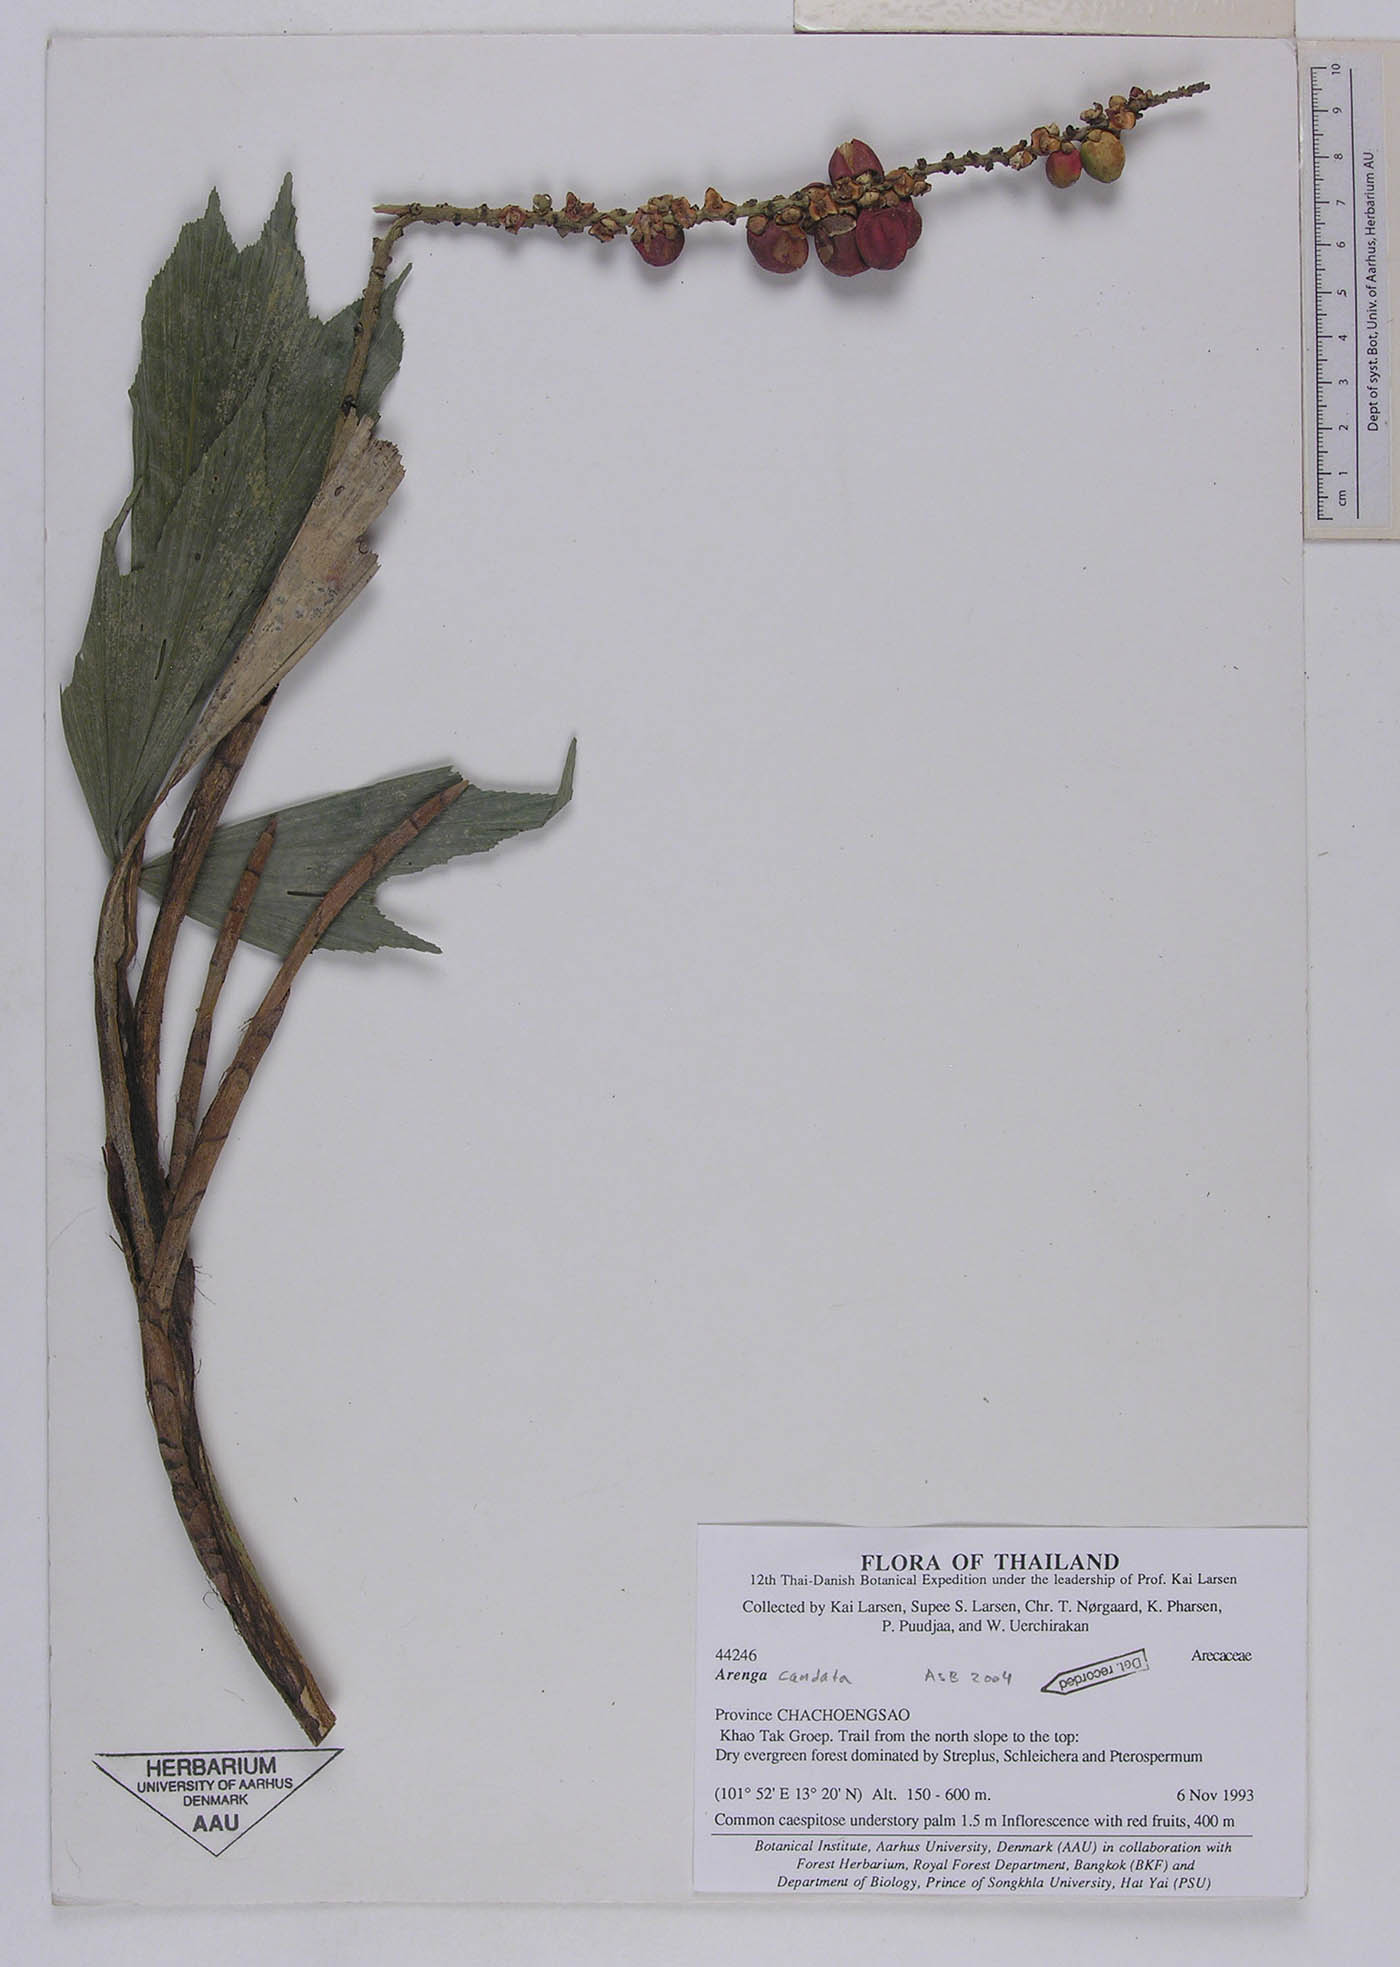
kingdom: Plantae
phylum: Tracheophyta
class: Liliopsida
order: Arecales
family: Arecaceae
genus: Arenga
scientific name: Arenga caudata
